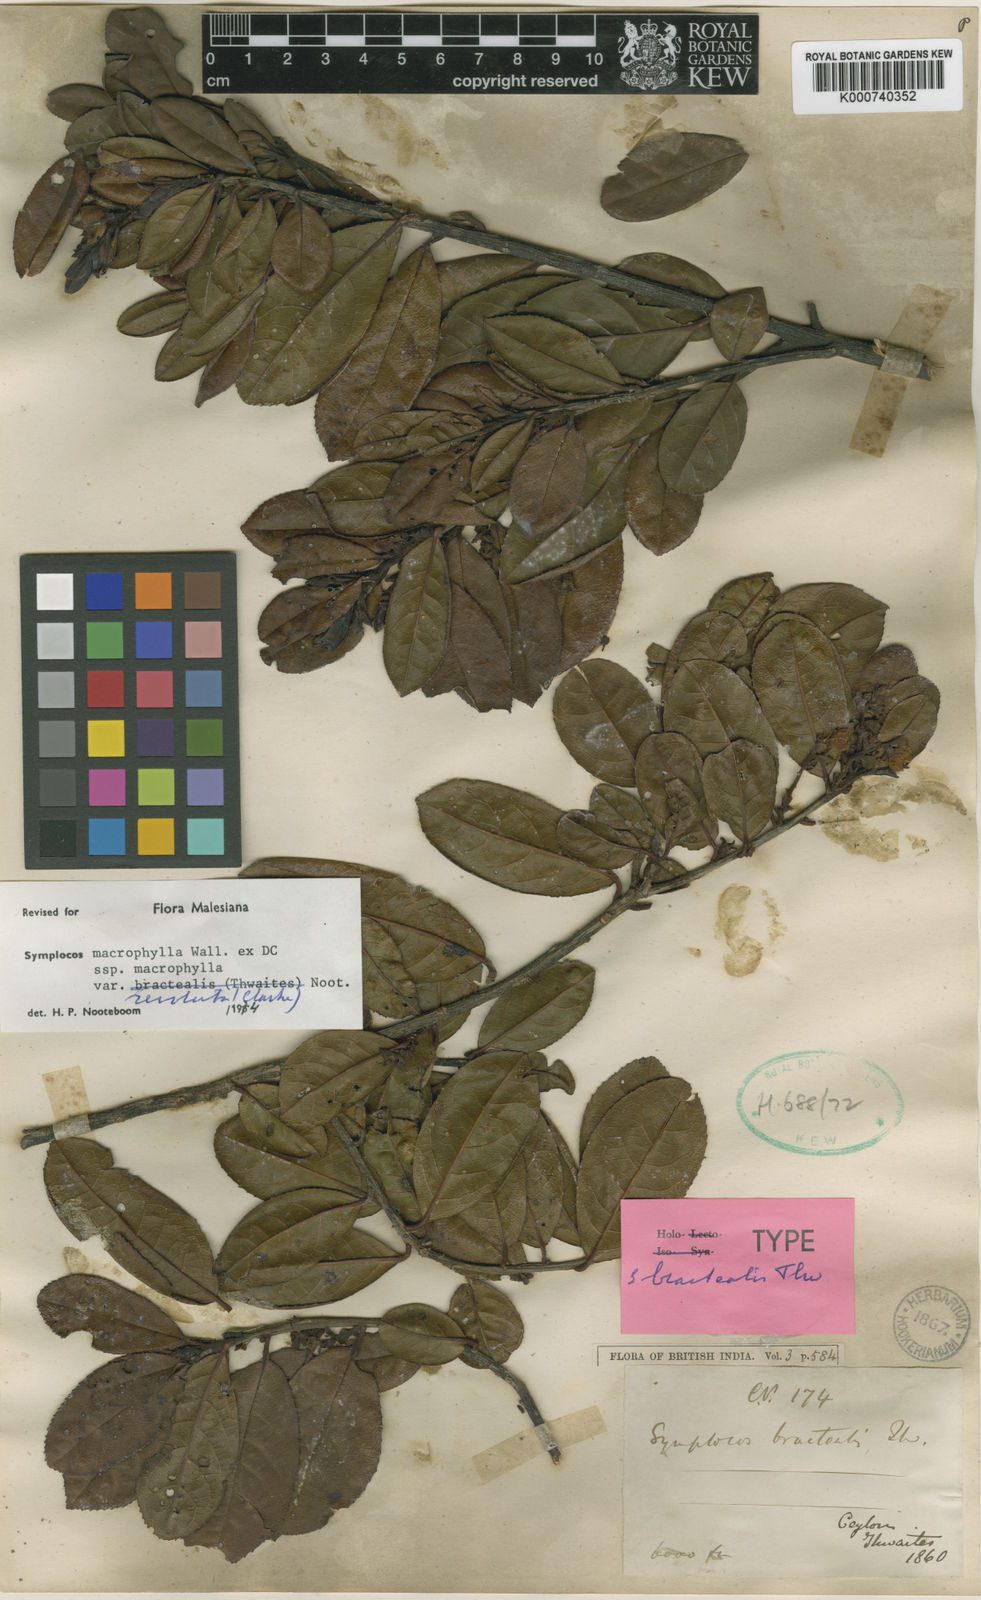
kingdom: Plantae
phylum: Tracheophyta
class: Magnoliopsida
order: Ericales
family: Symplocaceae
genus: Symplocos
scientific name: Symplocos
